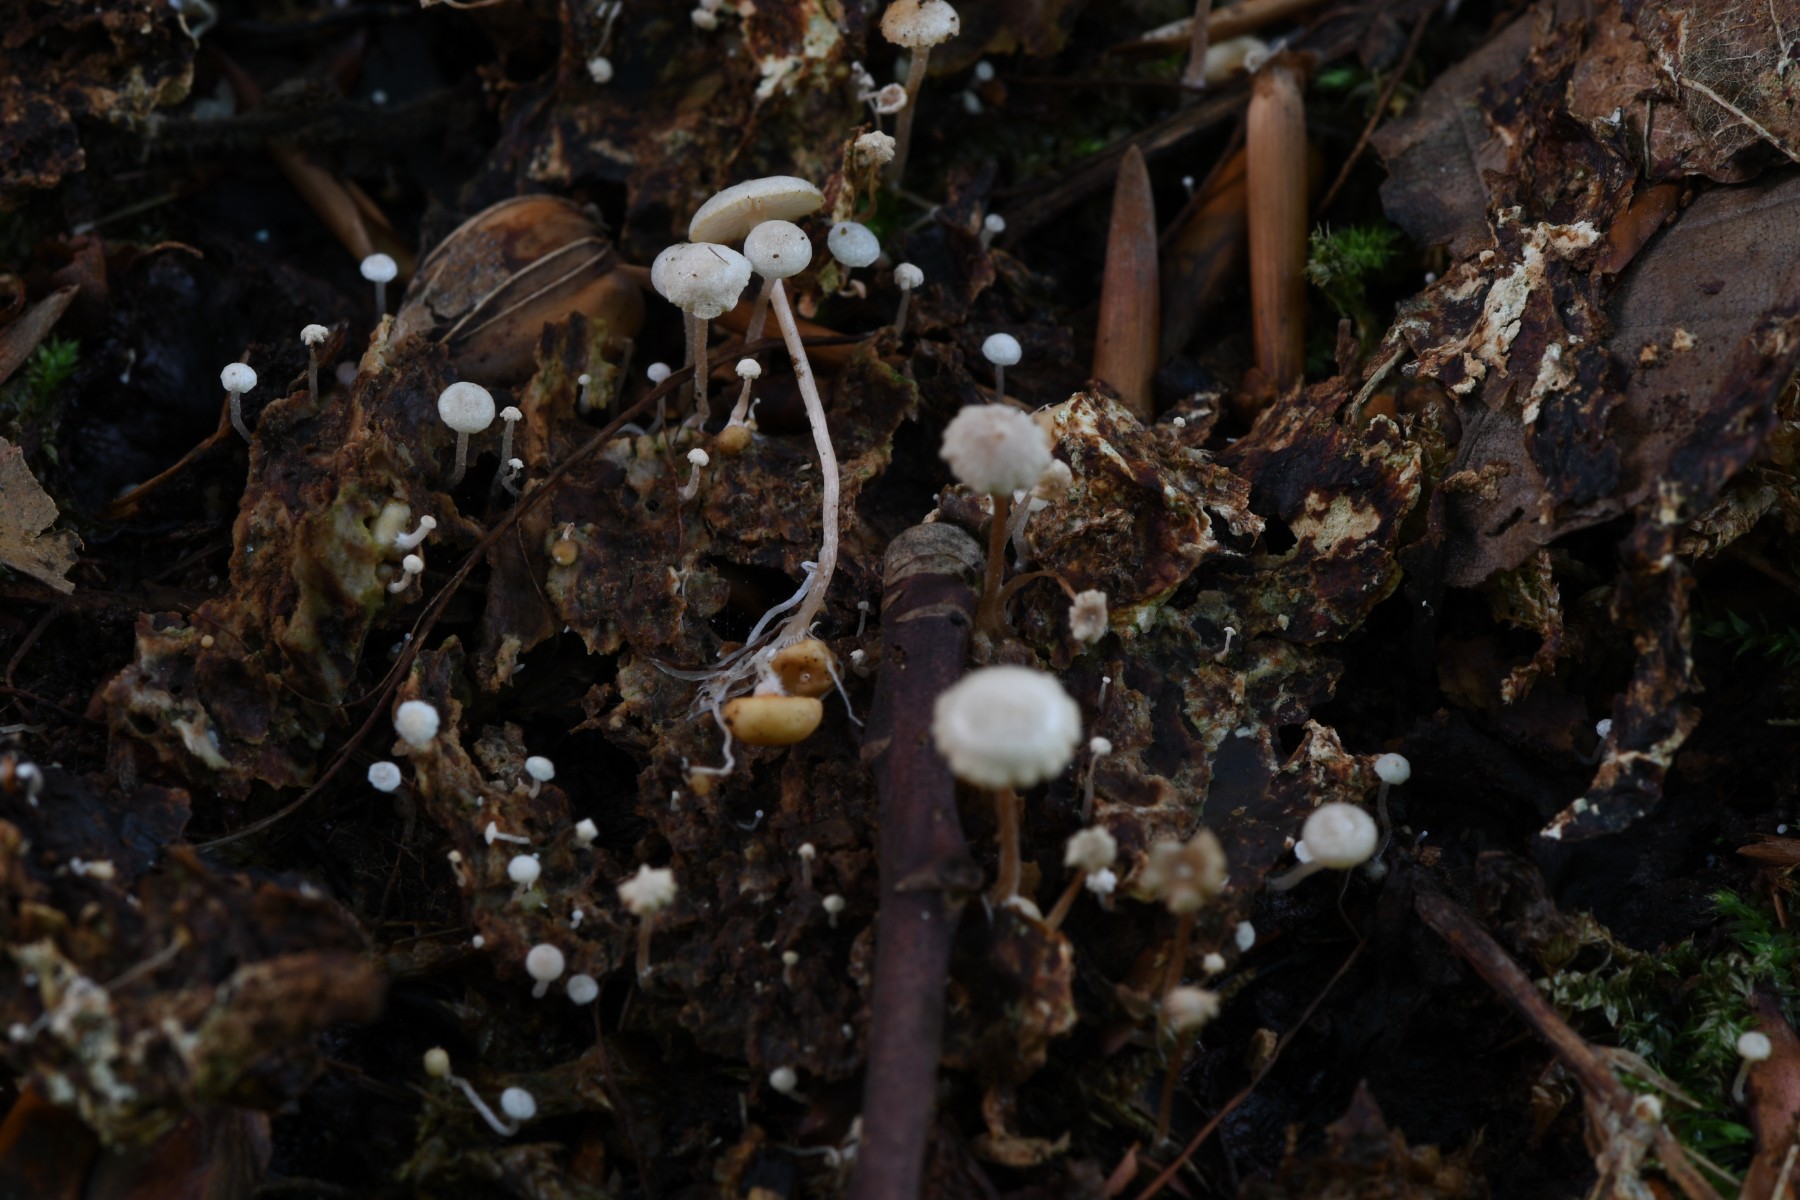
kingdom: Fungi
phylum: Basidiomycota
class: Agaricomycetes
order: Agaricales
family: Tricholomataceae
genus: Collybia
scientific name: Collybia cookei
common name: gulknoldet lighat
